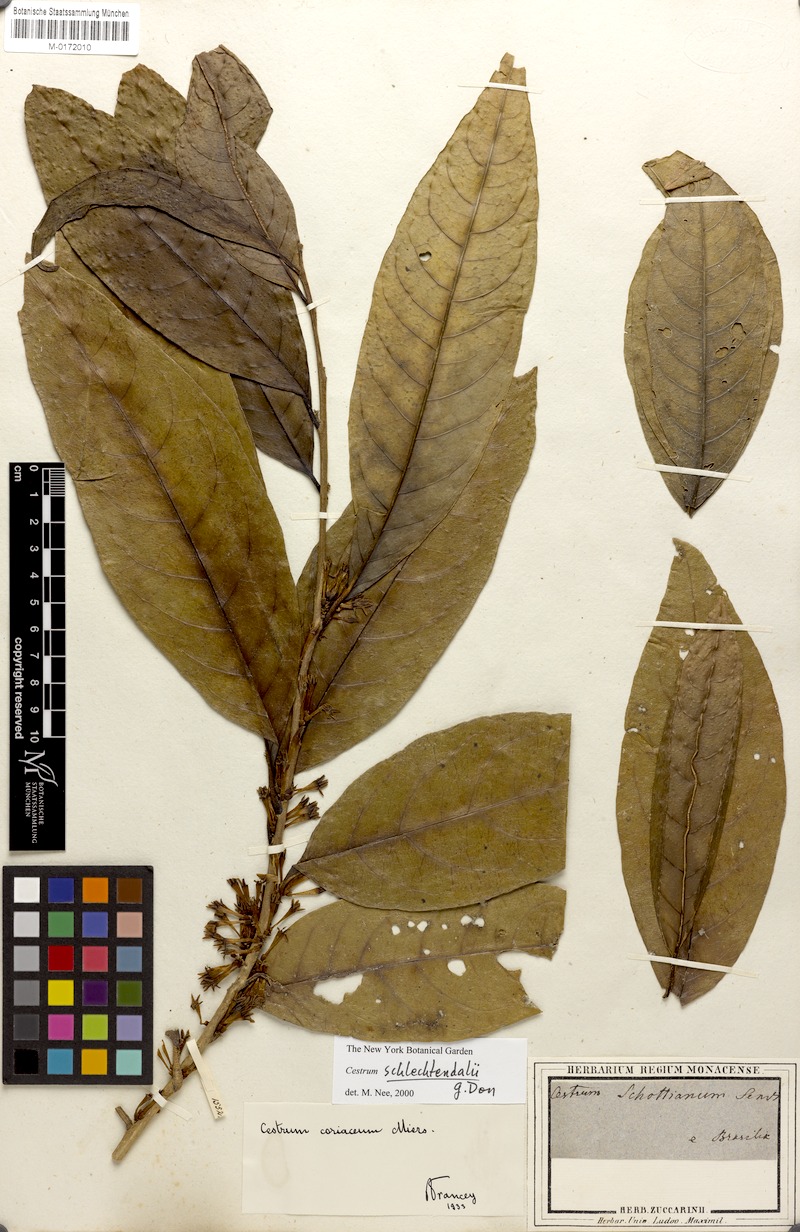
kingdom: Plantae
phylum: Tracheophyta
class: Magnoliopsida
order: Solanales
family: Solanaceae
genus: Cestrum
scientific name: Cestrum schlechtendalii
